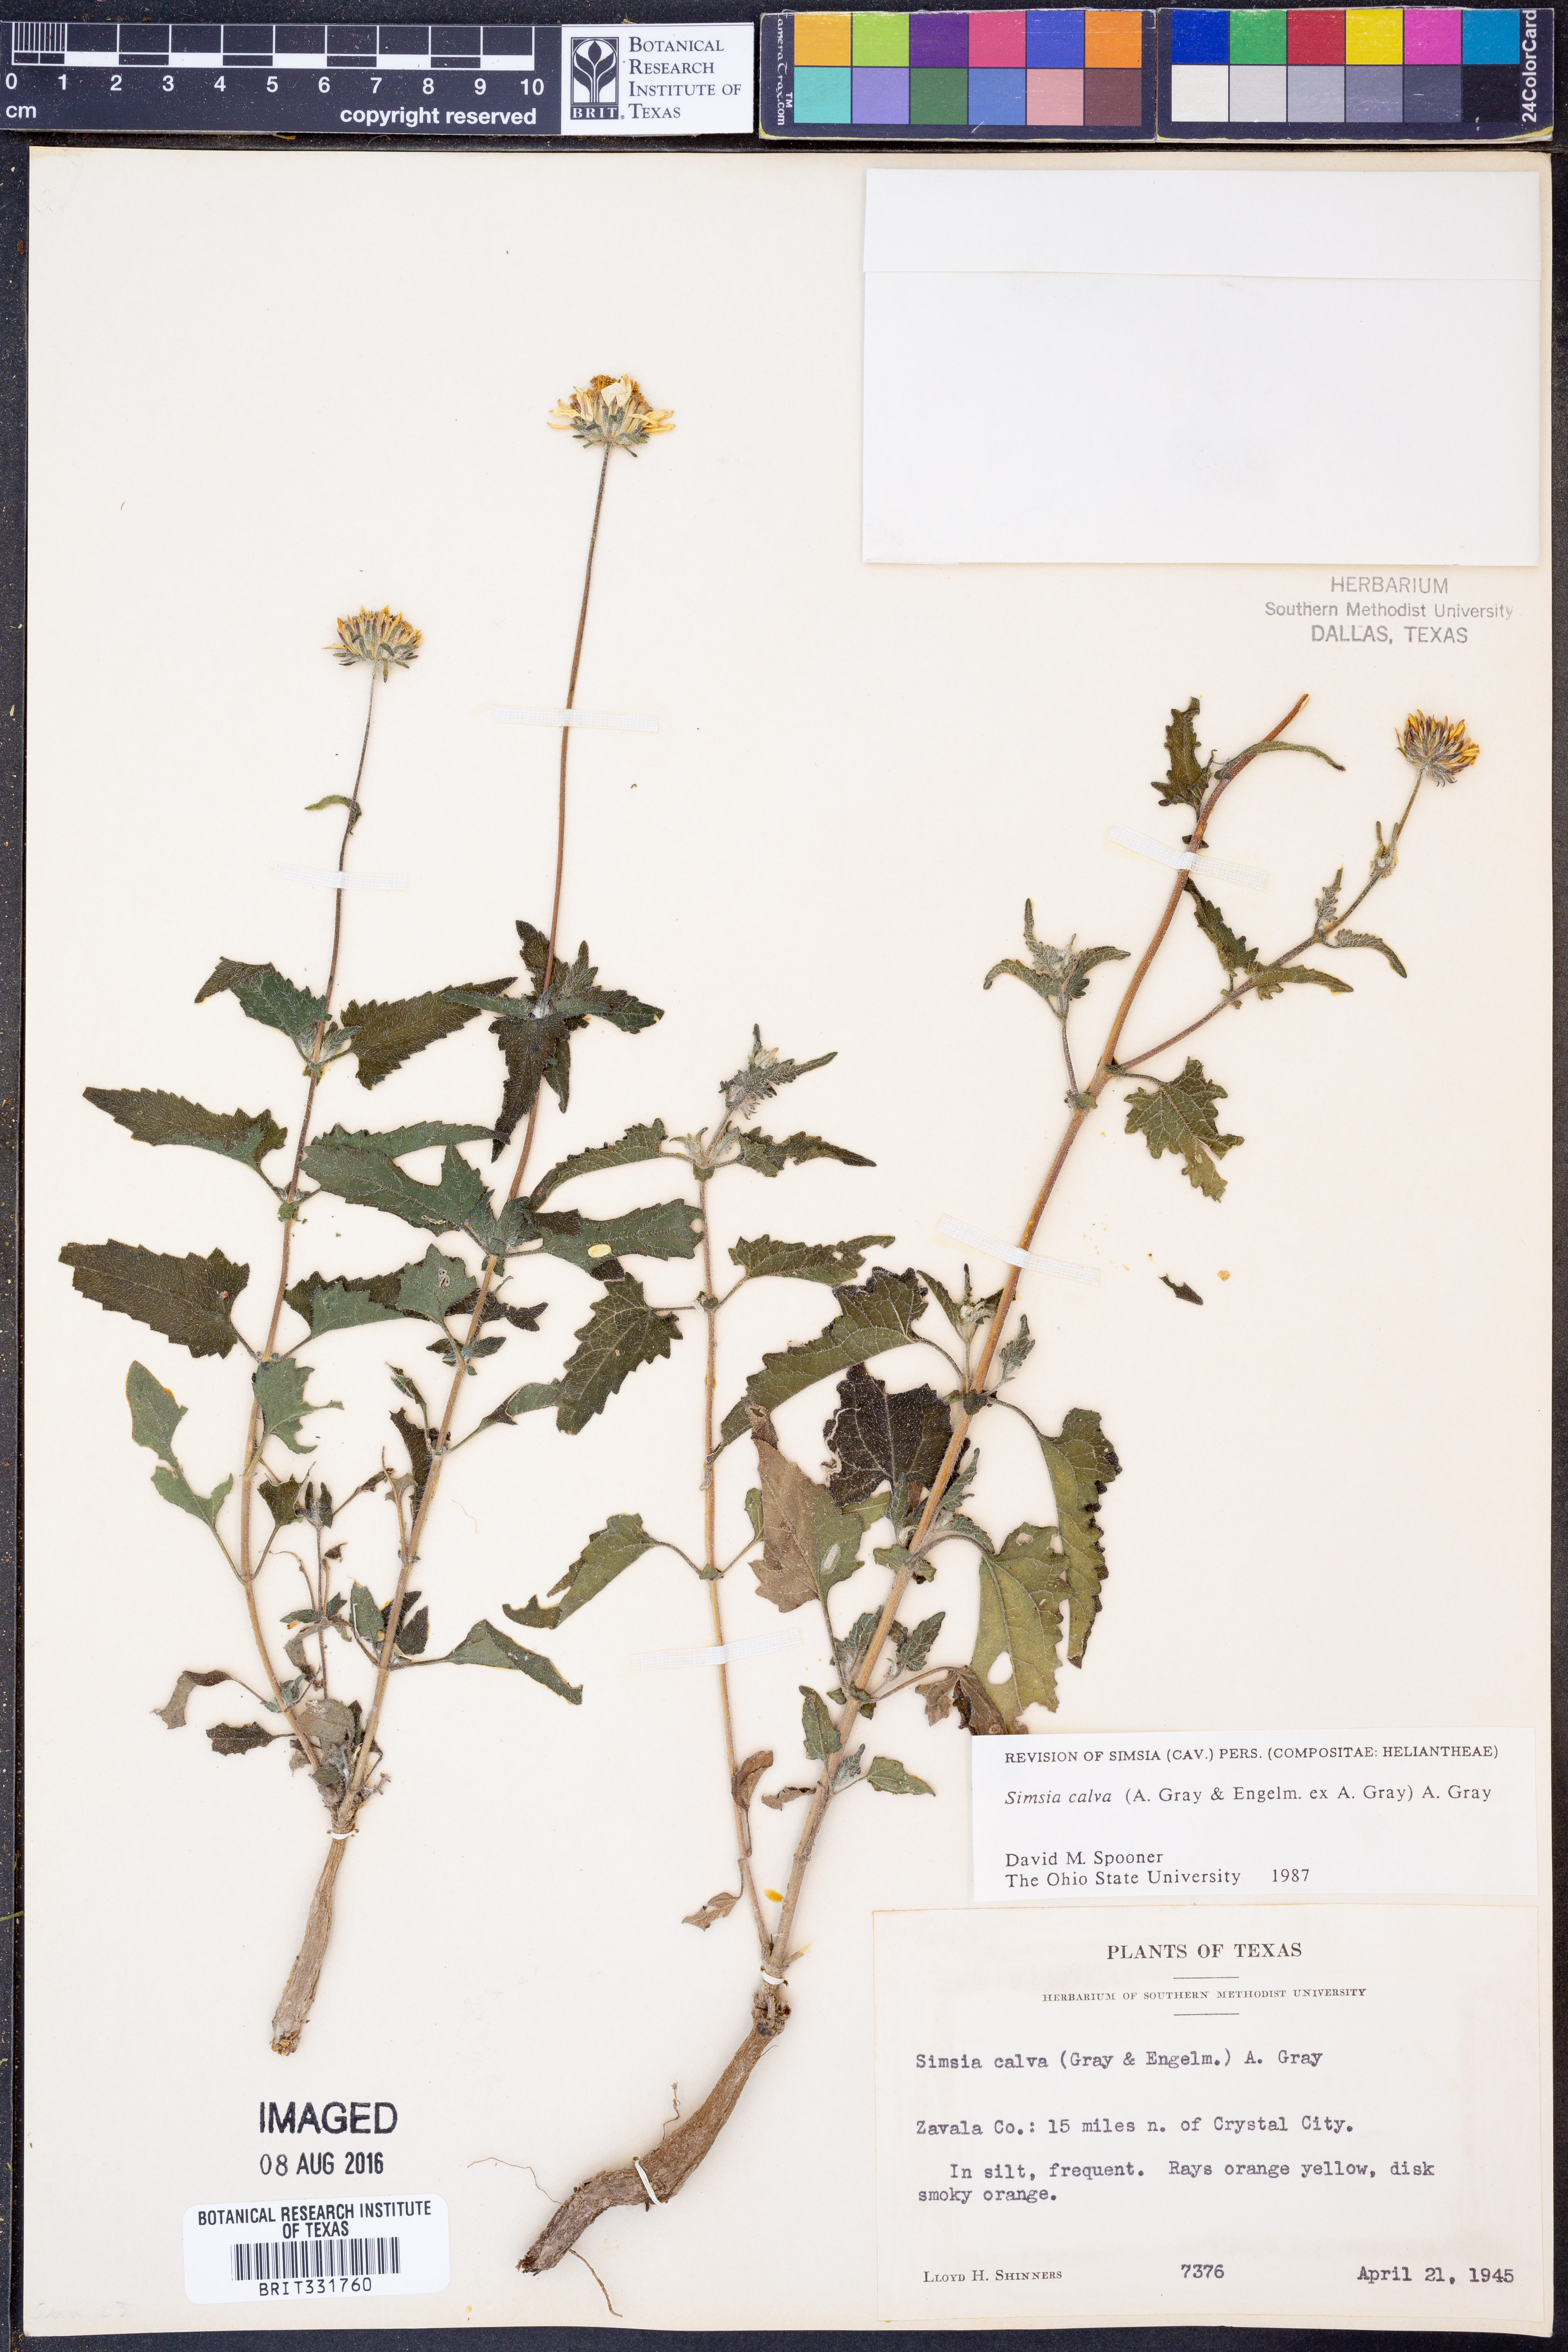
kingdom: Plantae
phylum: Tracheophyta
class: Magnoliopsida
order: Asterales
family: Asteraceae
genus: Simsia
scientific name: Simsia calva
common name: Awnless bush-sunflower
